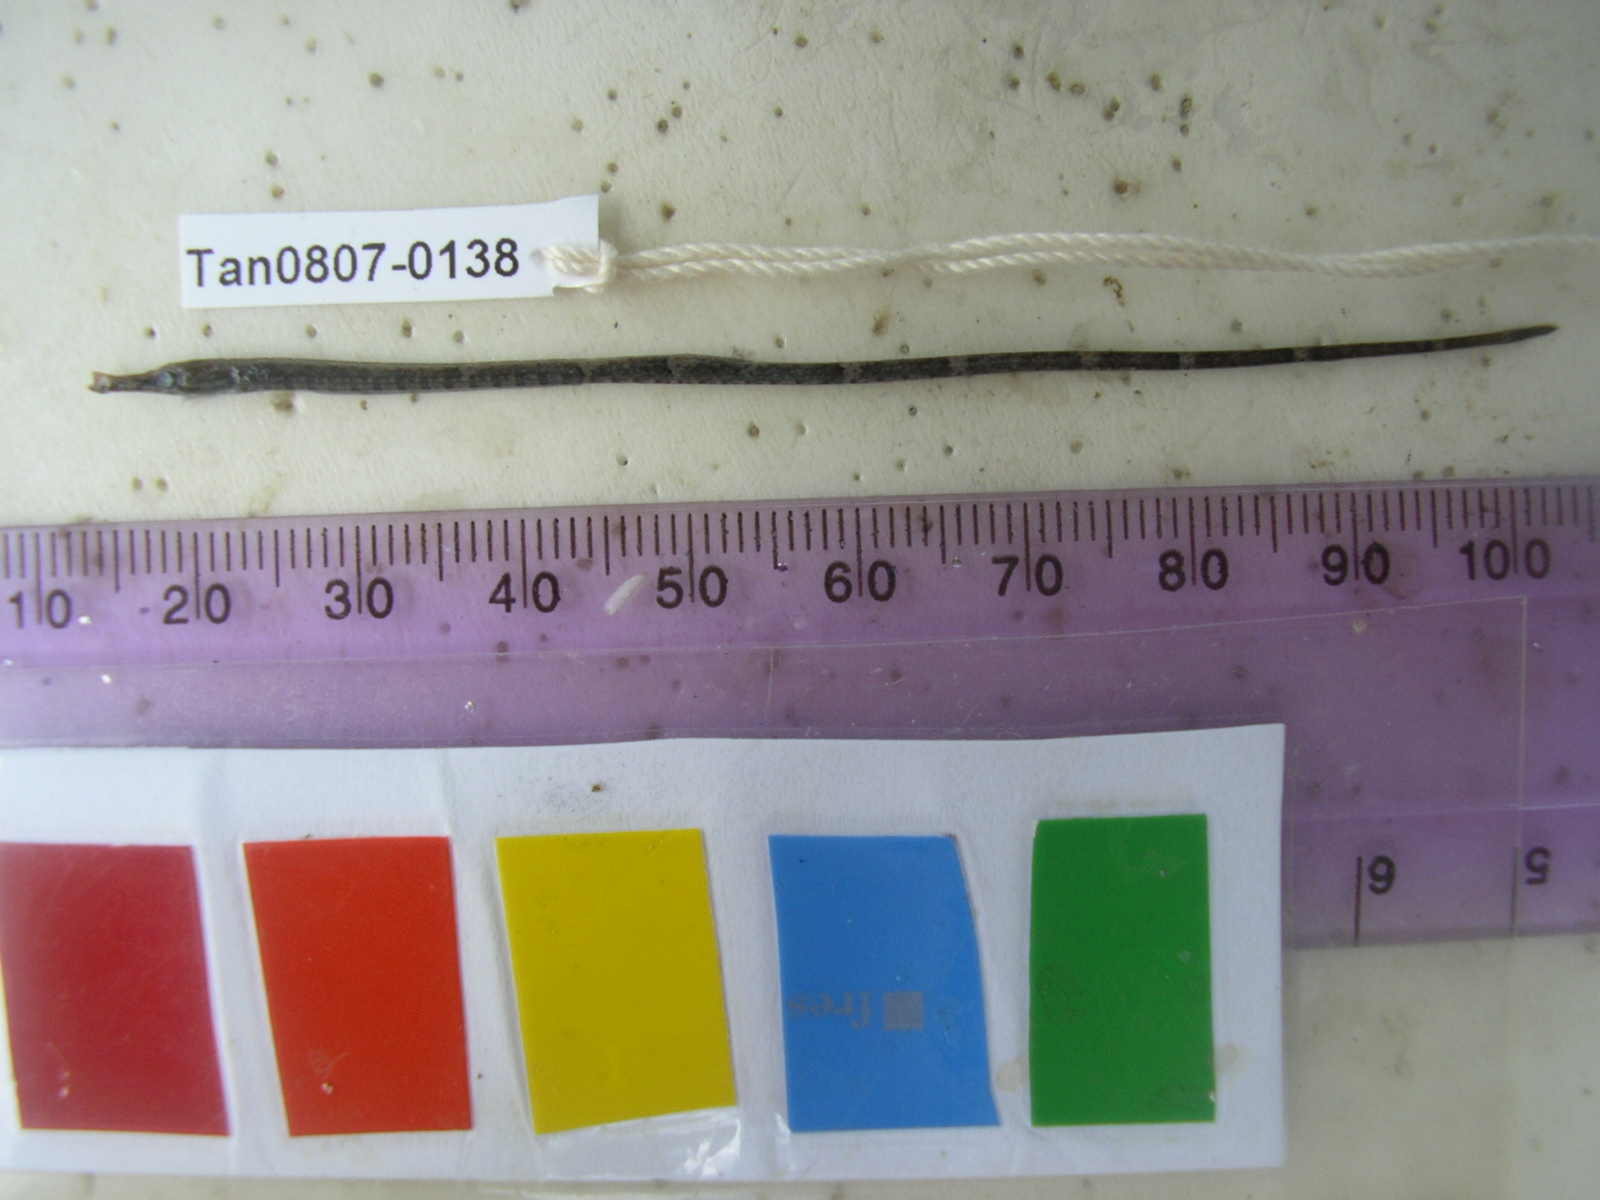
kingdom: Animalia
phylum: Chordata
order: Syngnathiformes
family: Syngnathidae
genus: Hippichthys
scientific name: Hippichthys spicifer
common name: Banded freshwater pipefish
